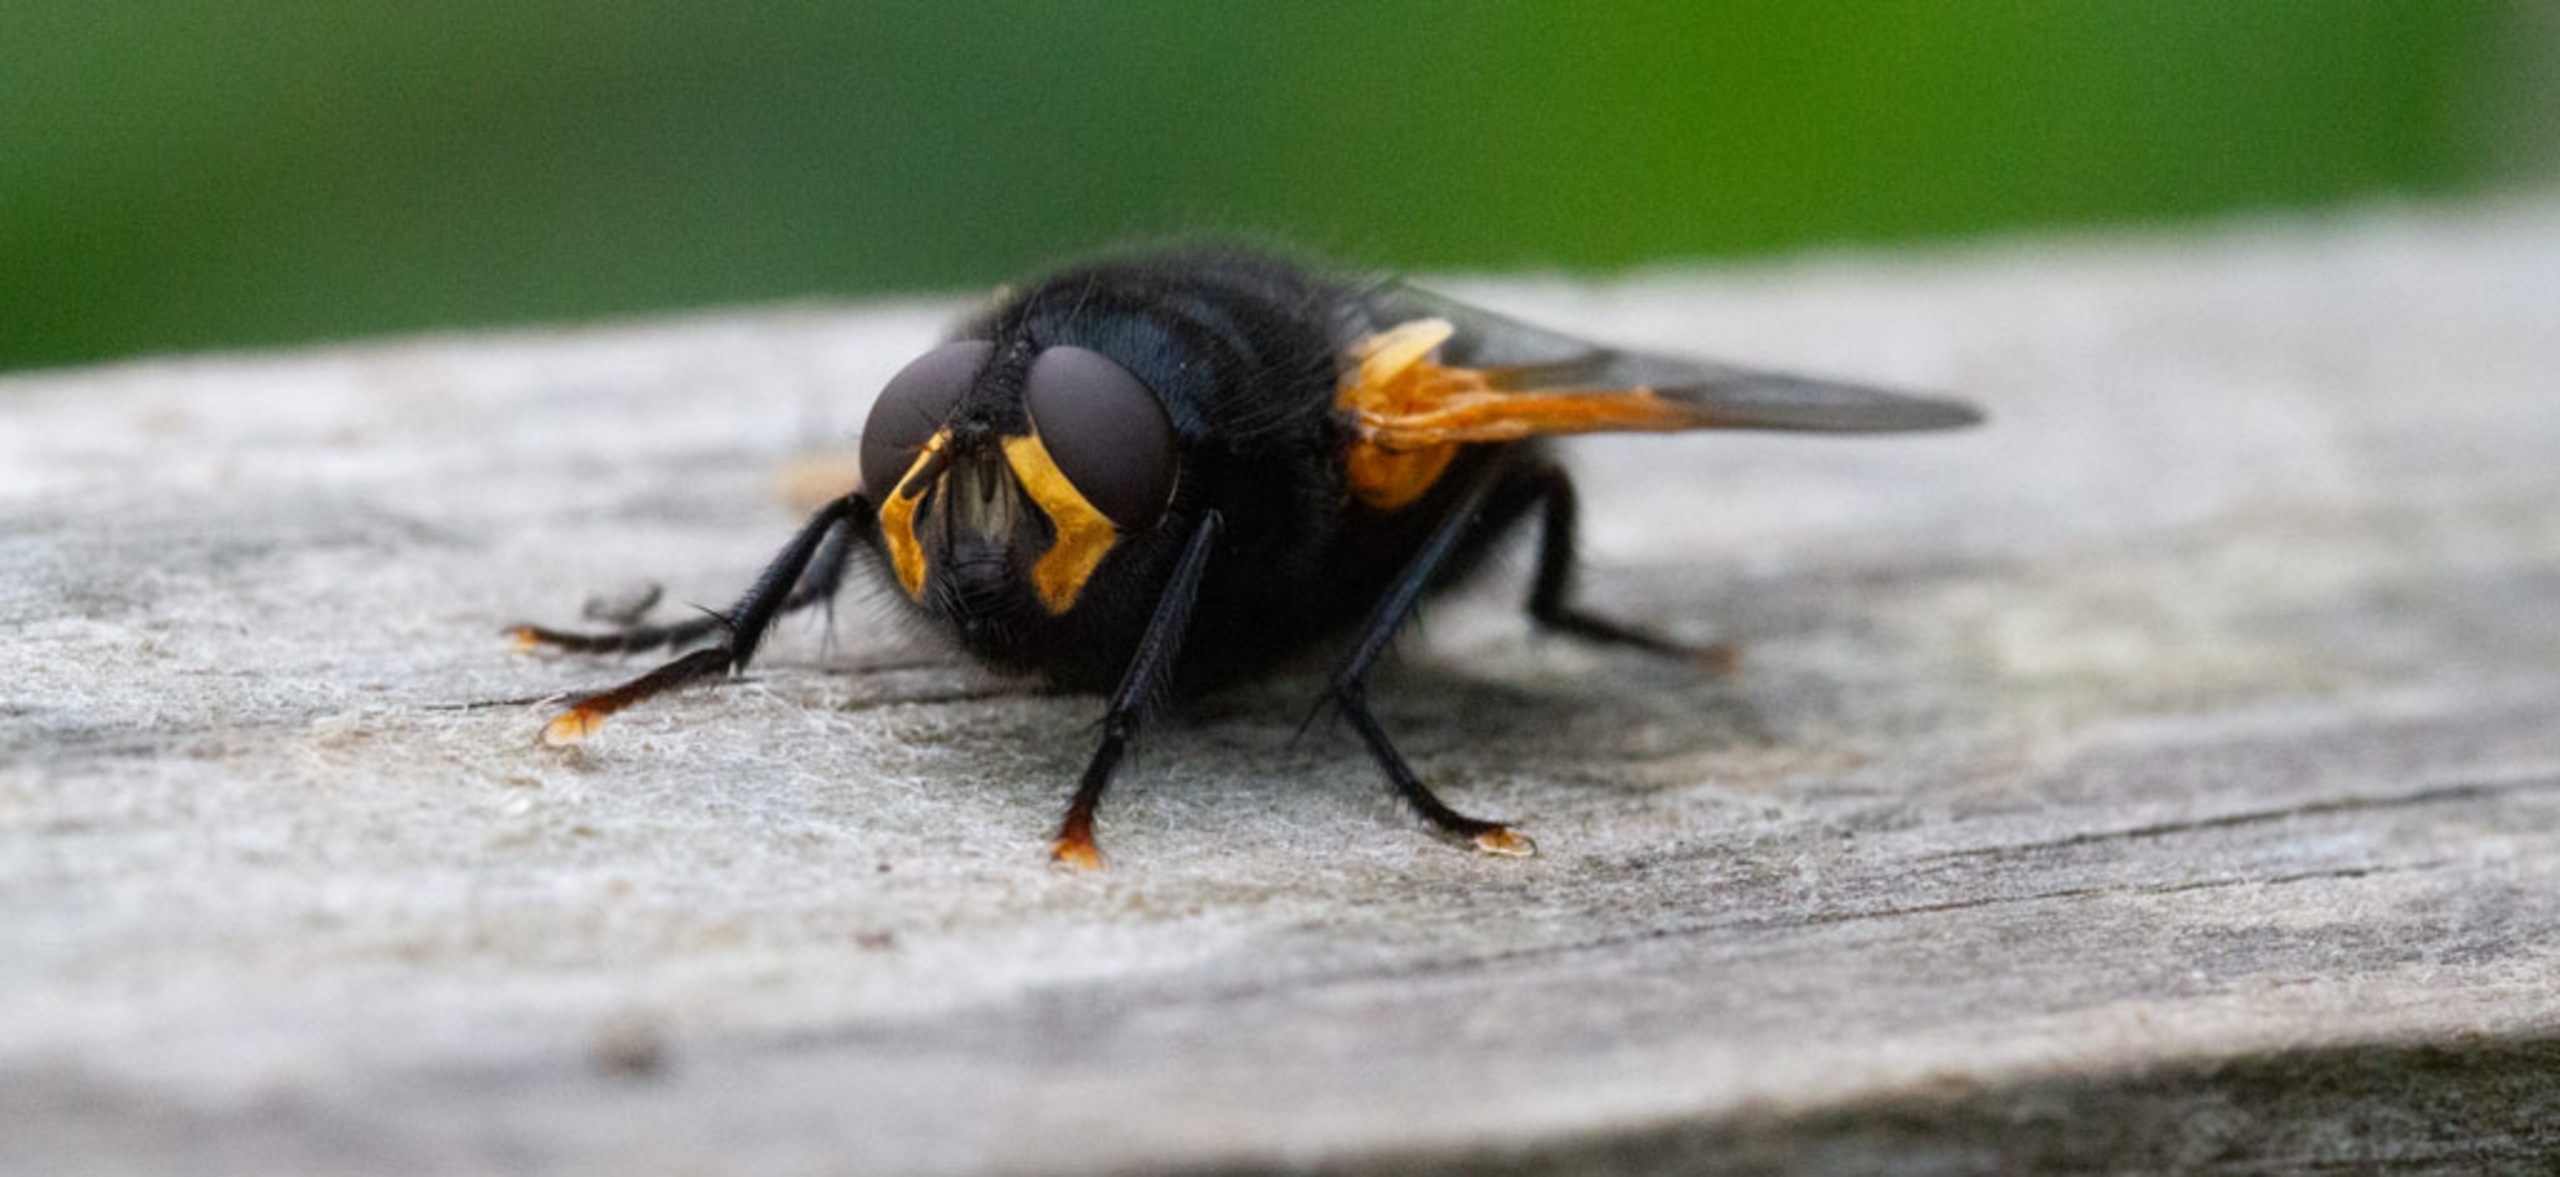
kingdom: Animalia
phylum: Arthropoda
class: Insecta
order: Diptera
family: Muscidae
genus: Mesembrina
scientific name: Mesembrina meridiana
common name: Gulvinget flue
